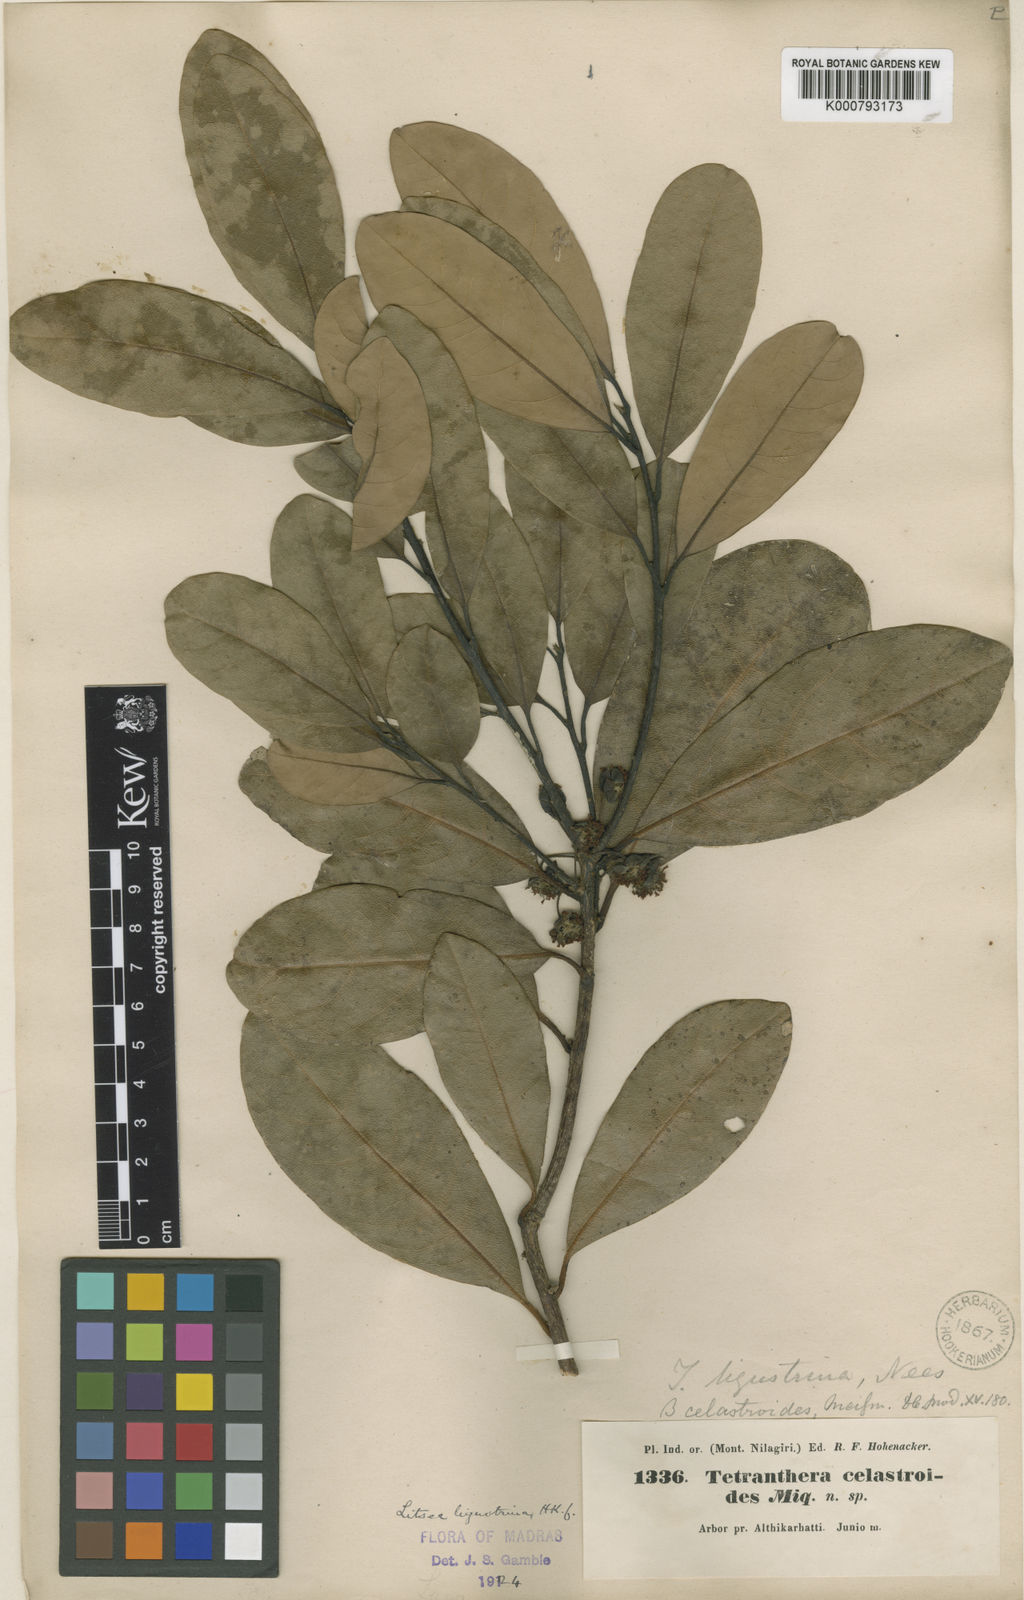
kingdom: Plantae
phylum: Tracheophyta
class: Magnoliopsida
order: Laurales
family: Lauraceae
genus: Litsea
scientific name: Litsea
